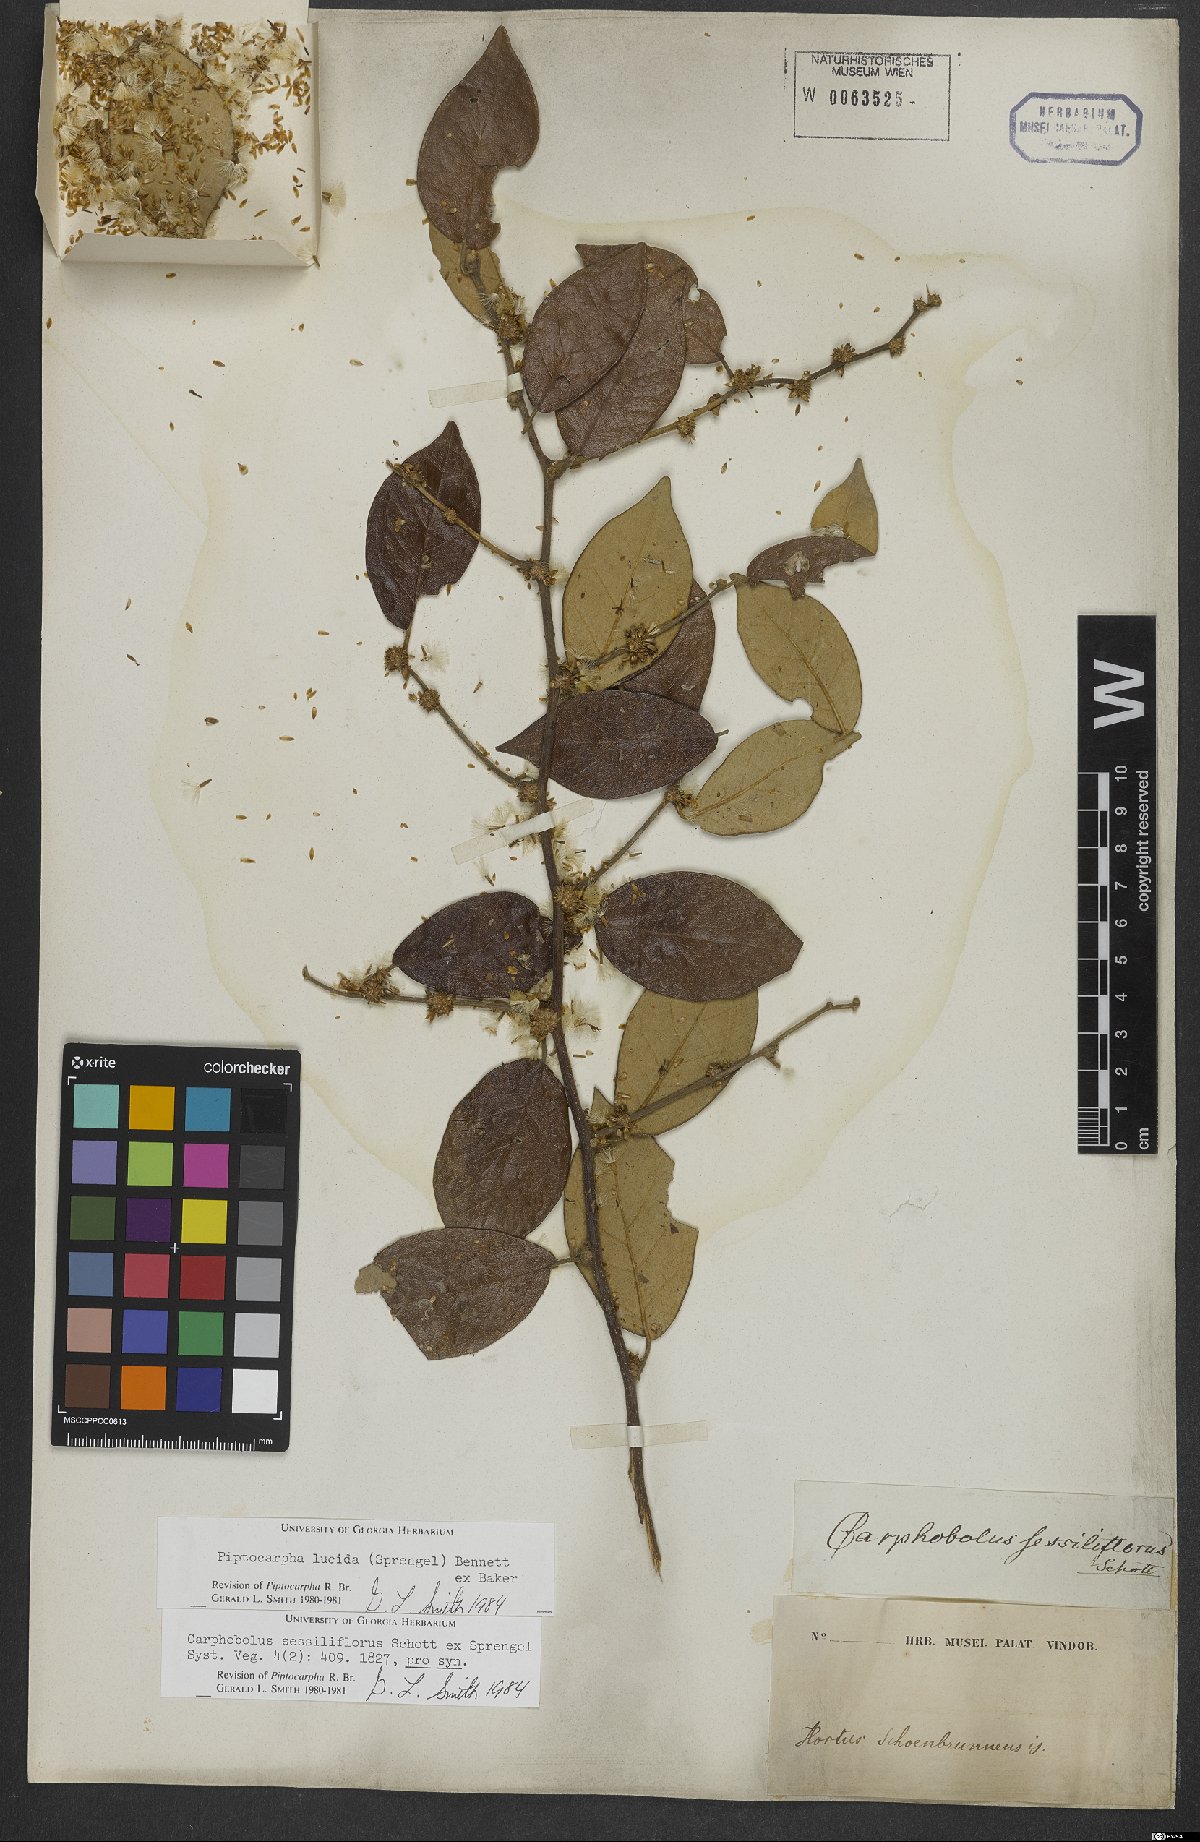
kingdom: Plantae
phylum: Tracheophyta
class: Magnoliopsida
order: Asterales
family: Asteraceae
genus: Piptocarpha
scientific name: Piptocarpha lucida
